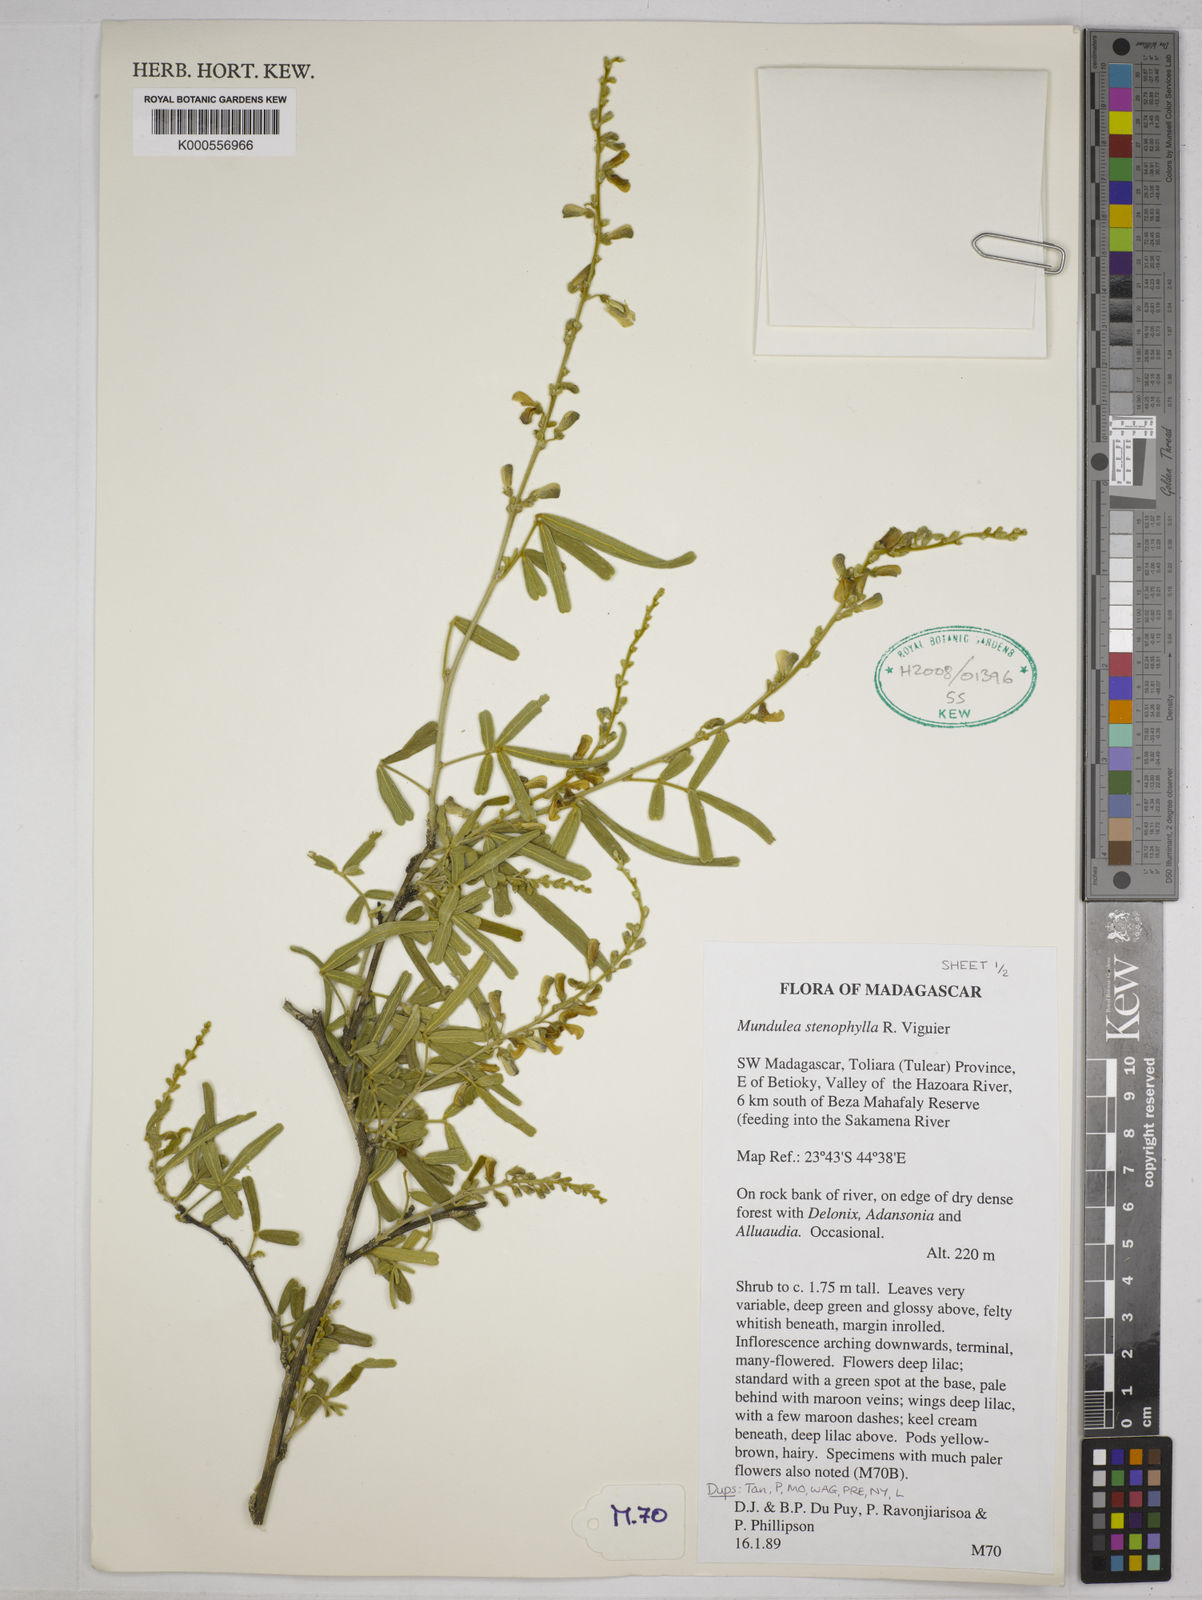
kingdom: Plantae
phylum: Tracheophyta
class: Magnoliopsida
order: Fabales
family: Fabaceae
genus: Mundulea
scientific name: Mundulea stenophylla
